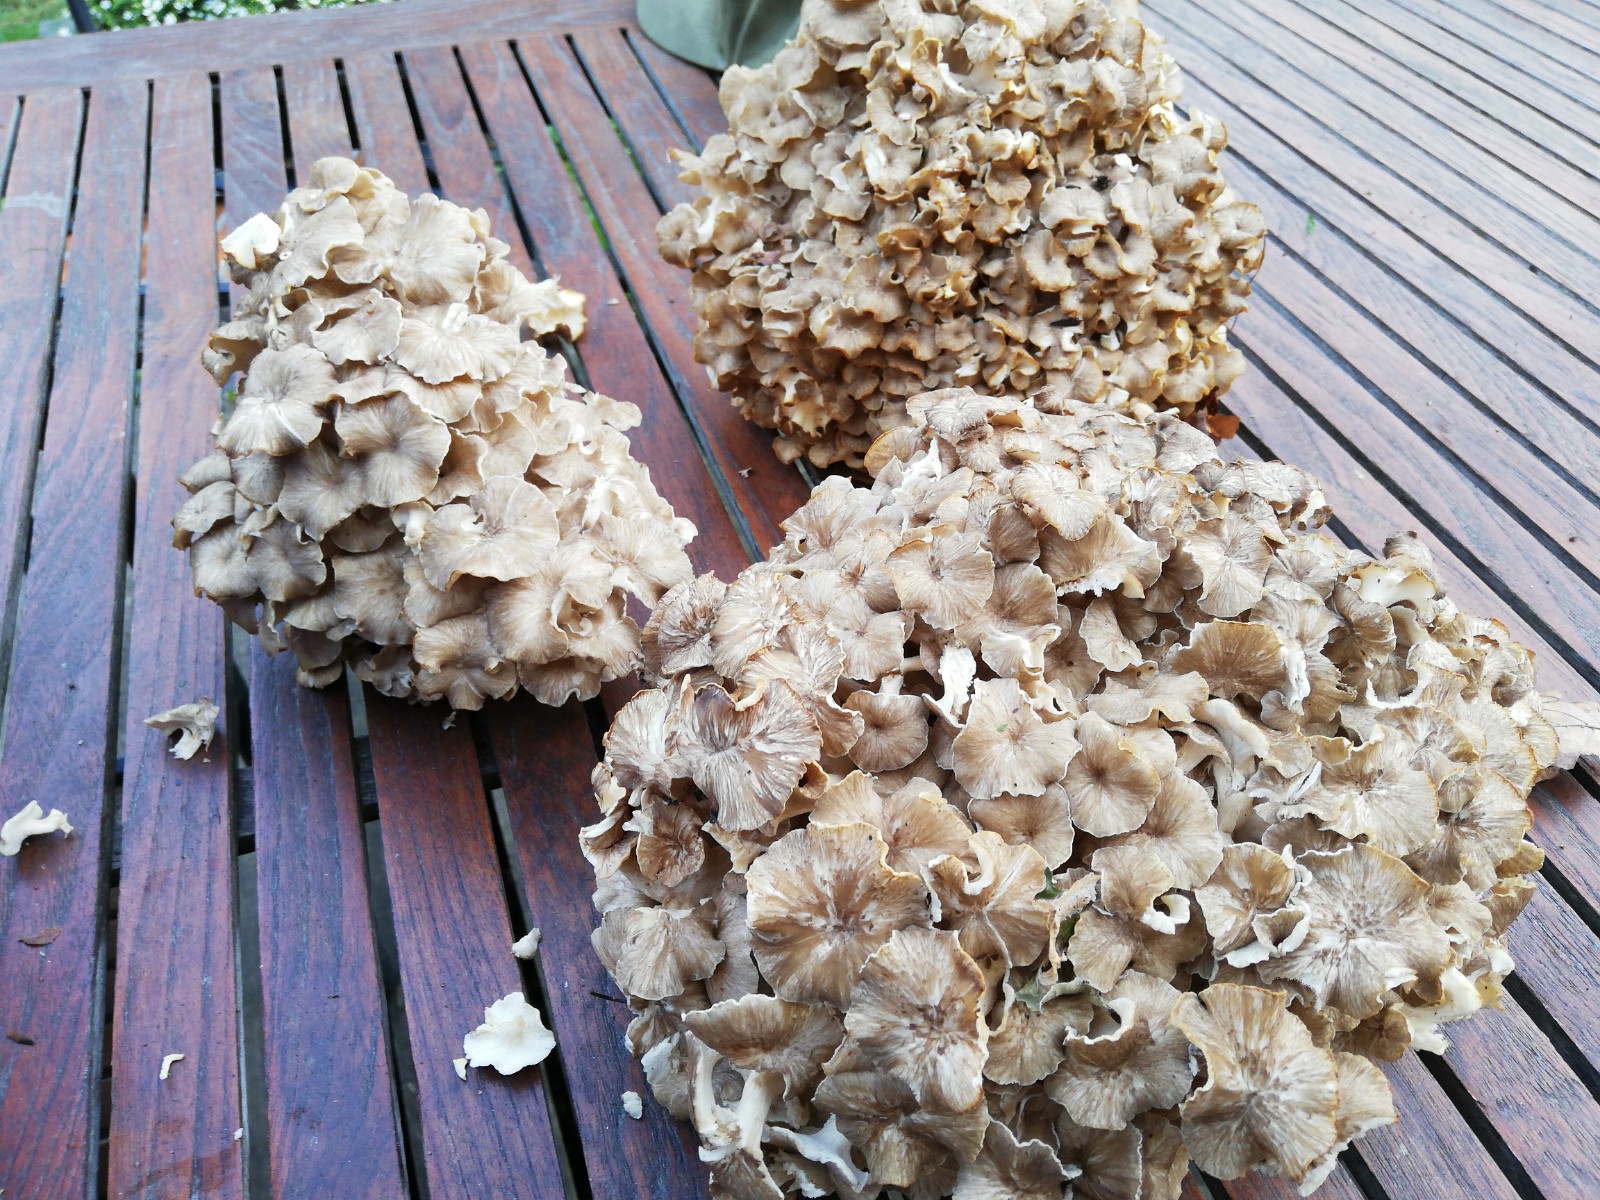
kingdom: Fungi
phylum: Basidiomycota
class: Agaricomycetes
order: Polyporales
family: Polyporaceae
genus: Polyporus
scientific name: Polyporus umbellatus
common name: skærmformet stilkporesvamp
